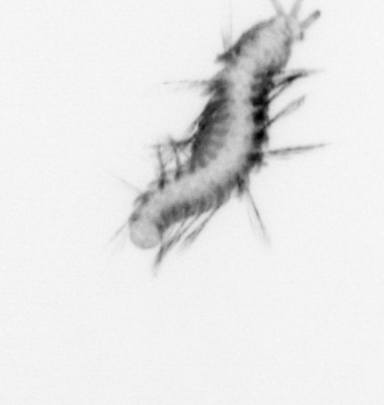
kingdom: Animalia
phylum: Annelida
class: Polychaeta
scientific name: Polychaeta
